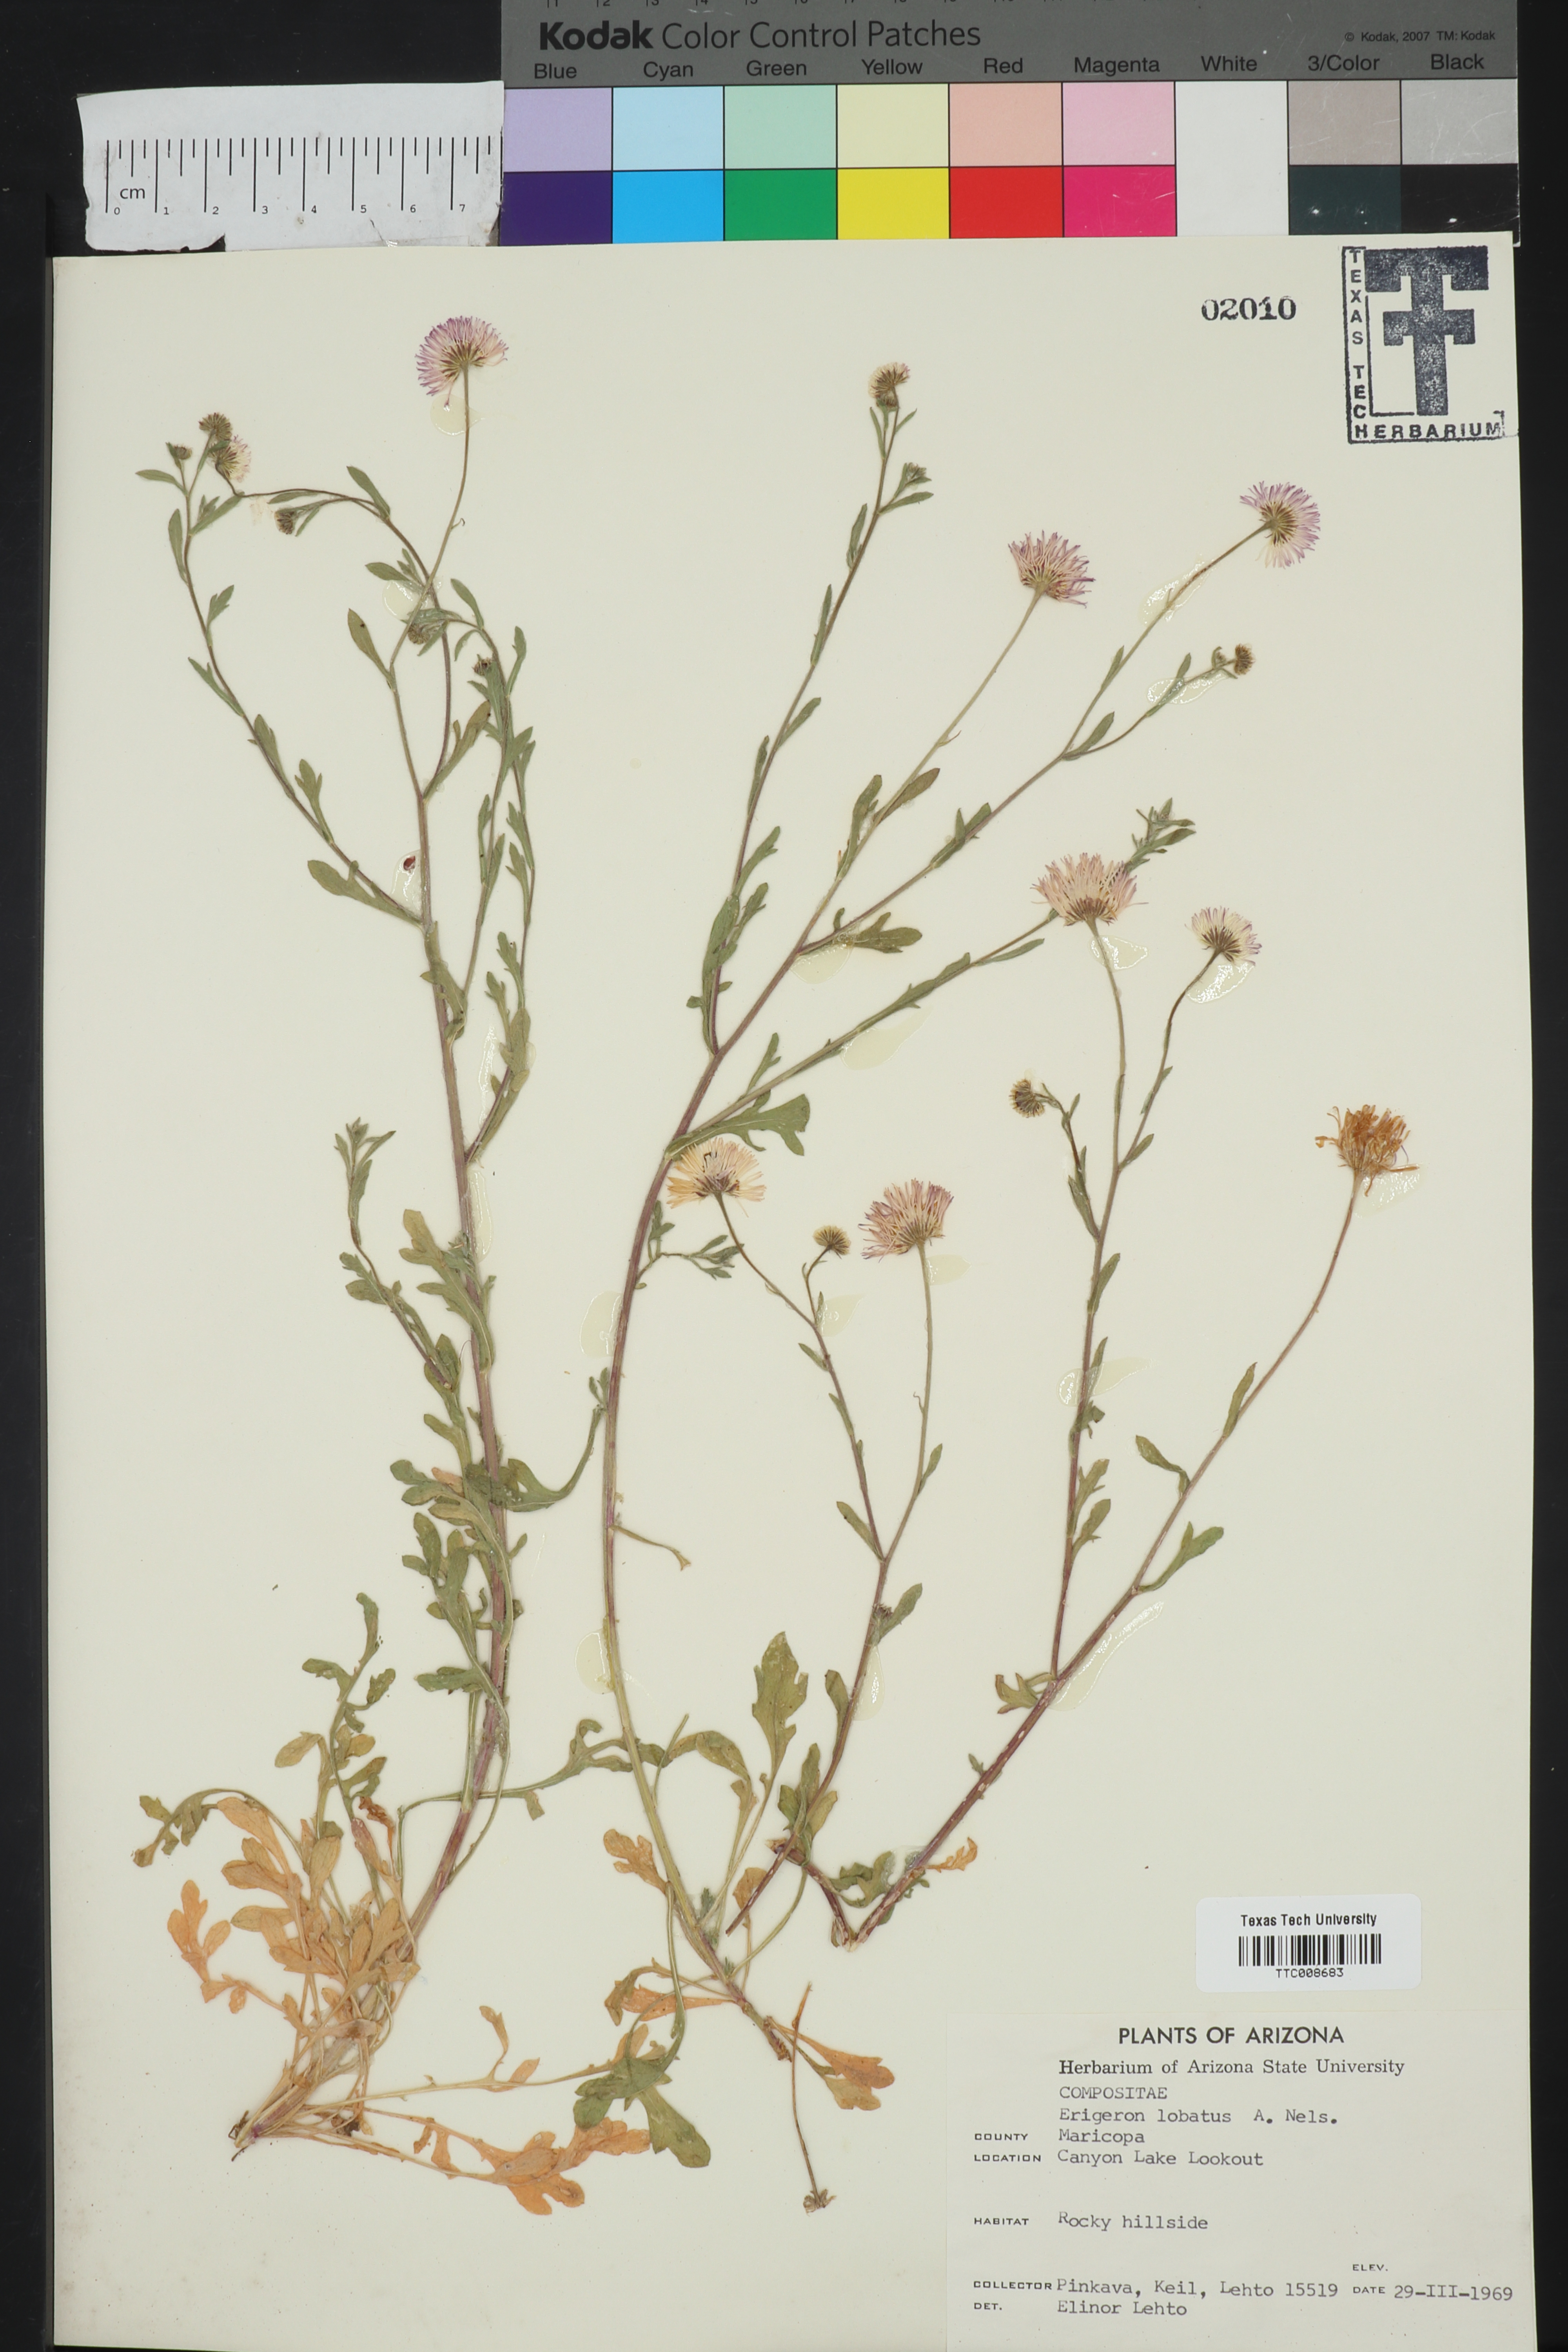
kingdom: Plantae
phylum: Tracheophyta
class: Magnoliopsida
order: Asterales
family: Asteraceae
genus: Erigeron
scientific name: Erigeron lobatus
